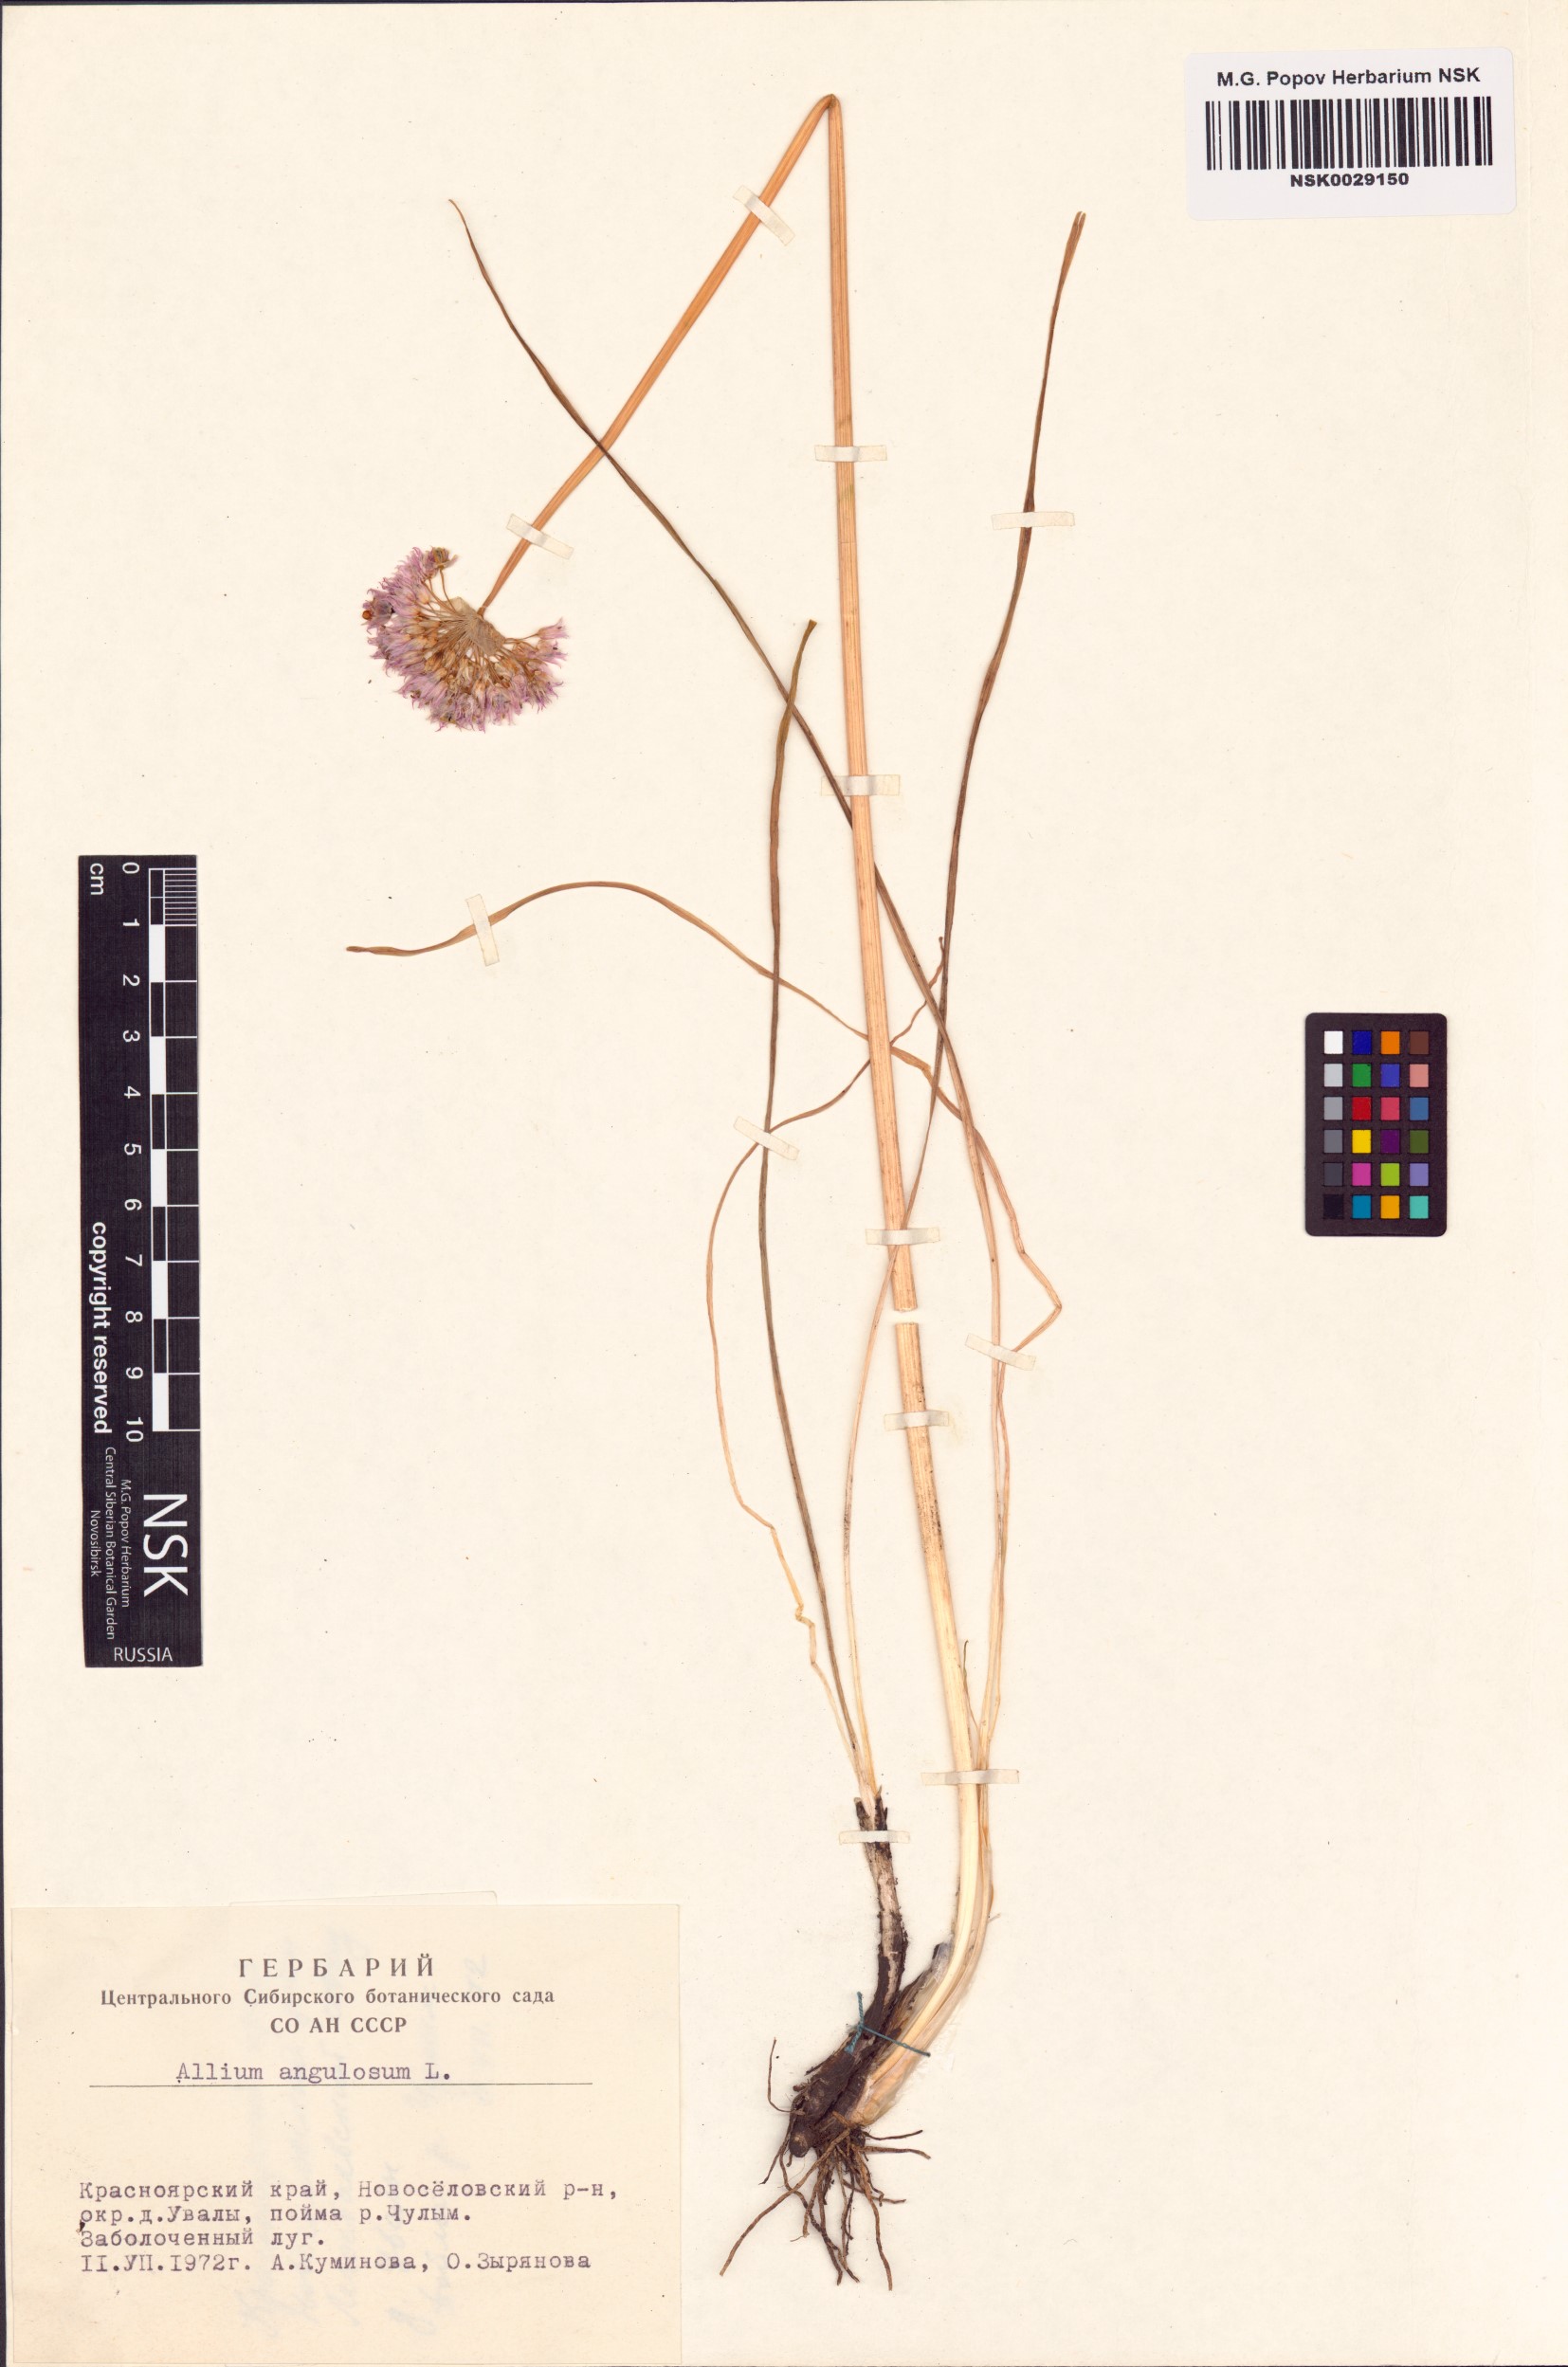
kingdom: Plantae
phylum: Tracheophyta
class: Liliopsida
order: Asparagales
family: Amaryllidaceae
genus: Allium
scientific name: Allium angulosum
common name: Mouse garlic
